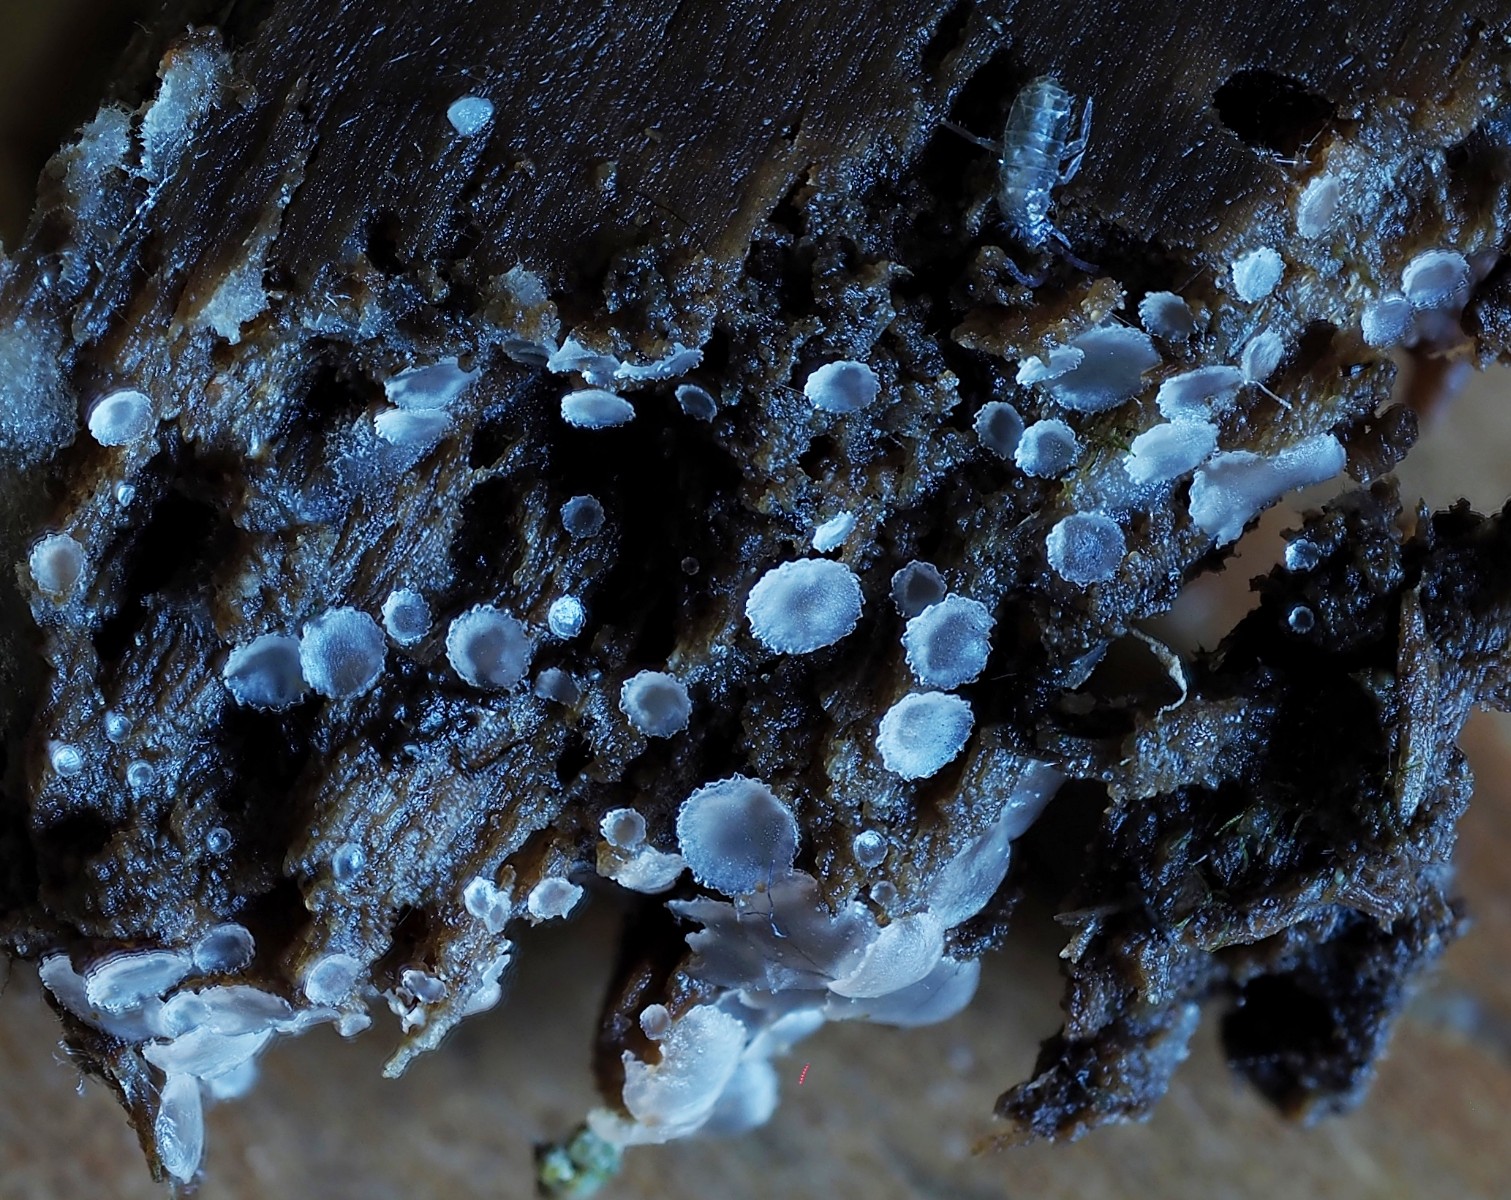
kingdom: Fungi
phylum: Ascomycota
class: Orbiliomycetes
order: Orbiliales
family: Orbiliaceae
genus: Orbilia
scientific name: Orbilia crenatomarginata
